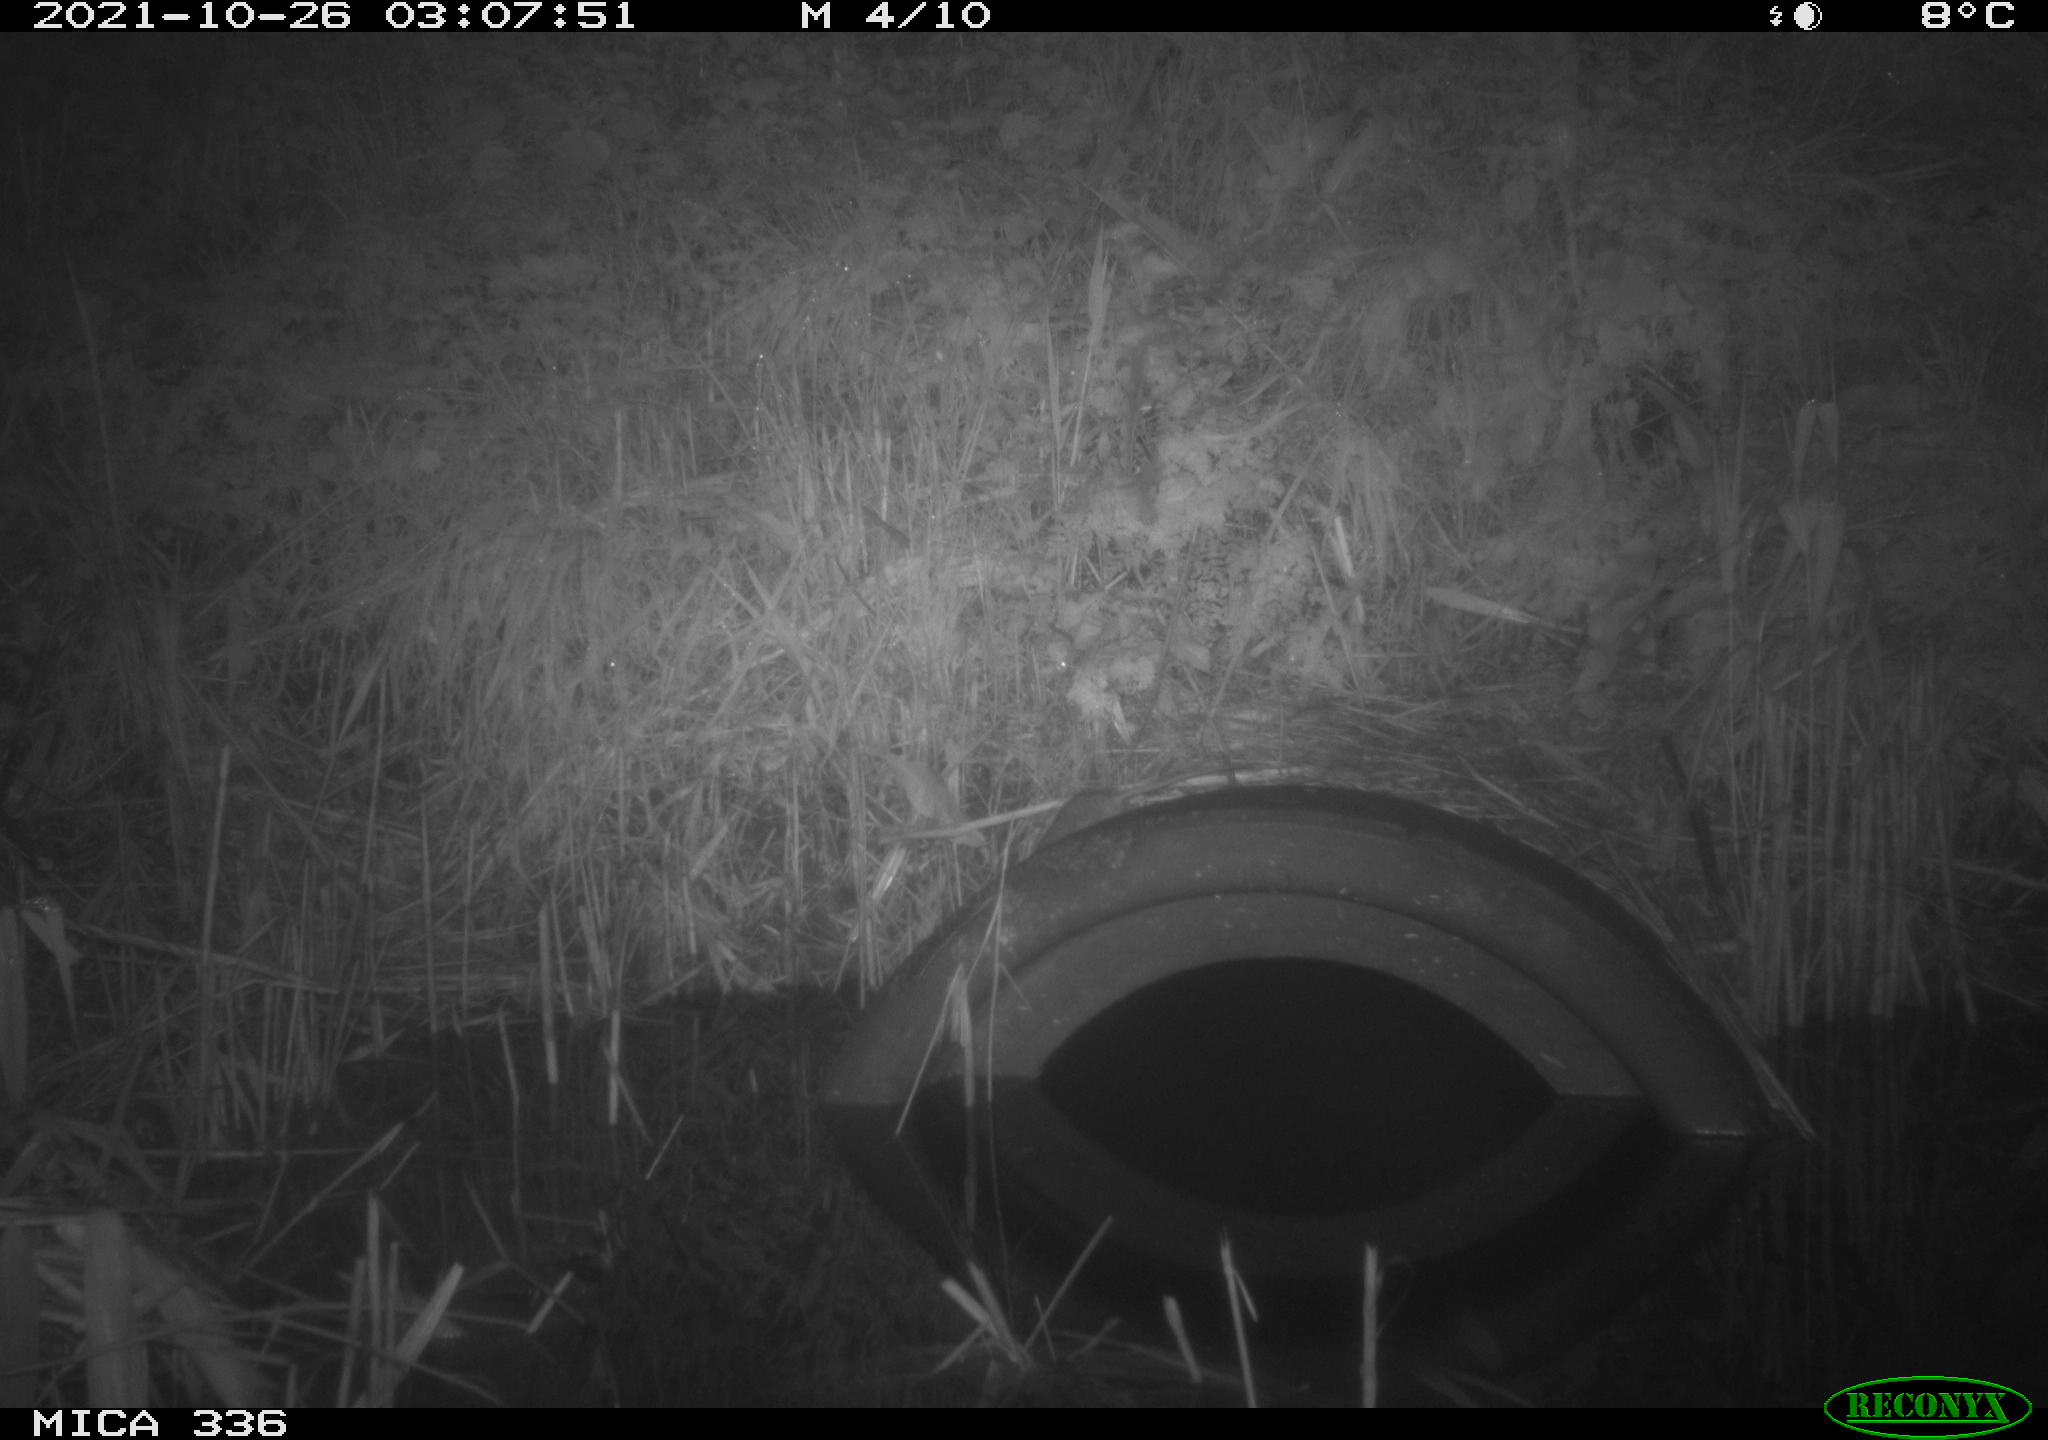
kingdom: Animalia
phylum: Chordata
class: Mammalia
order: Rodentia
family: Muridae
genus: Rattus
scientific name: Rattus norvegicus
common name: Brown rat
